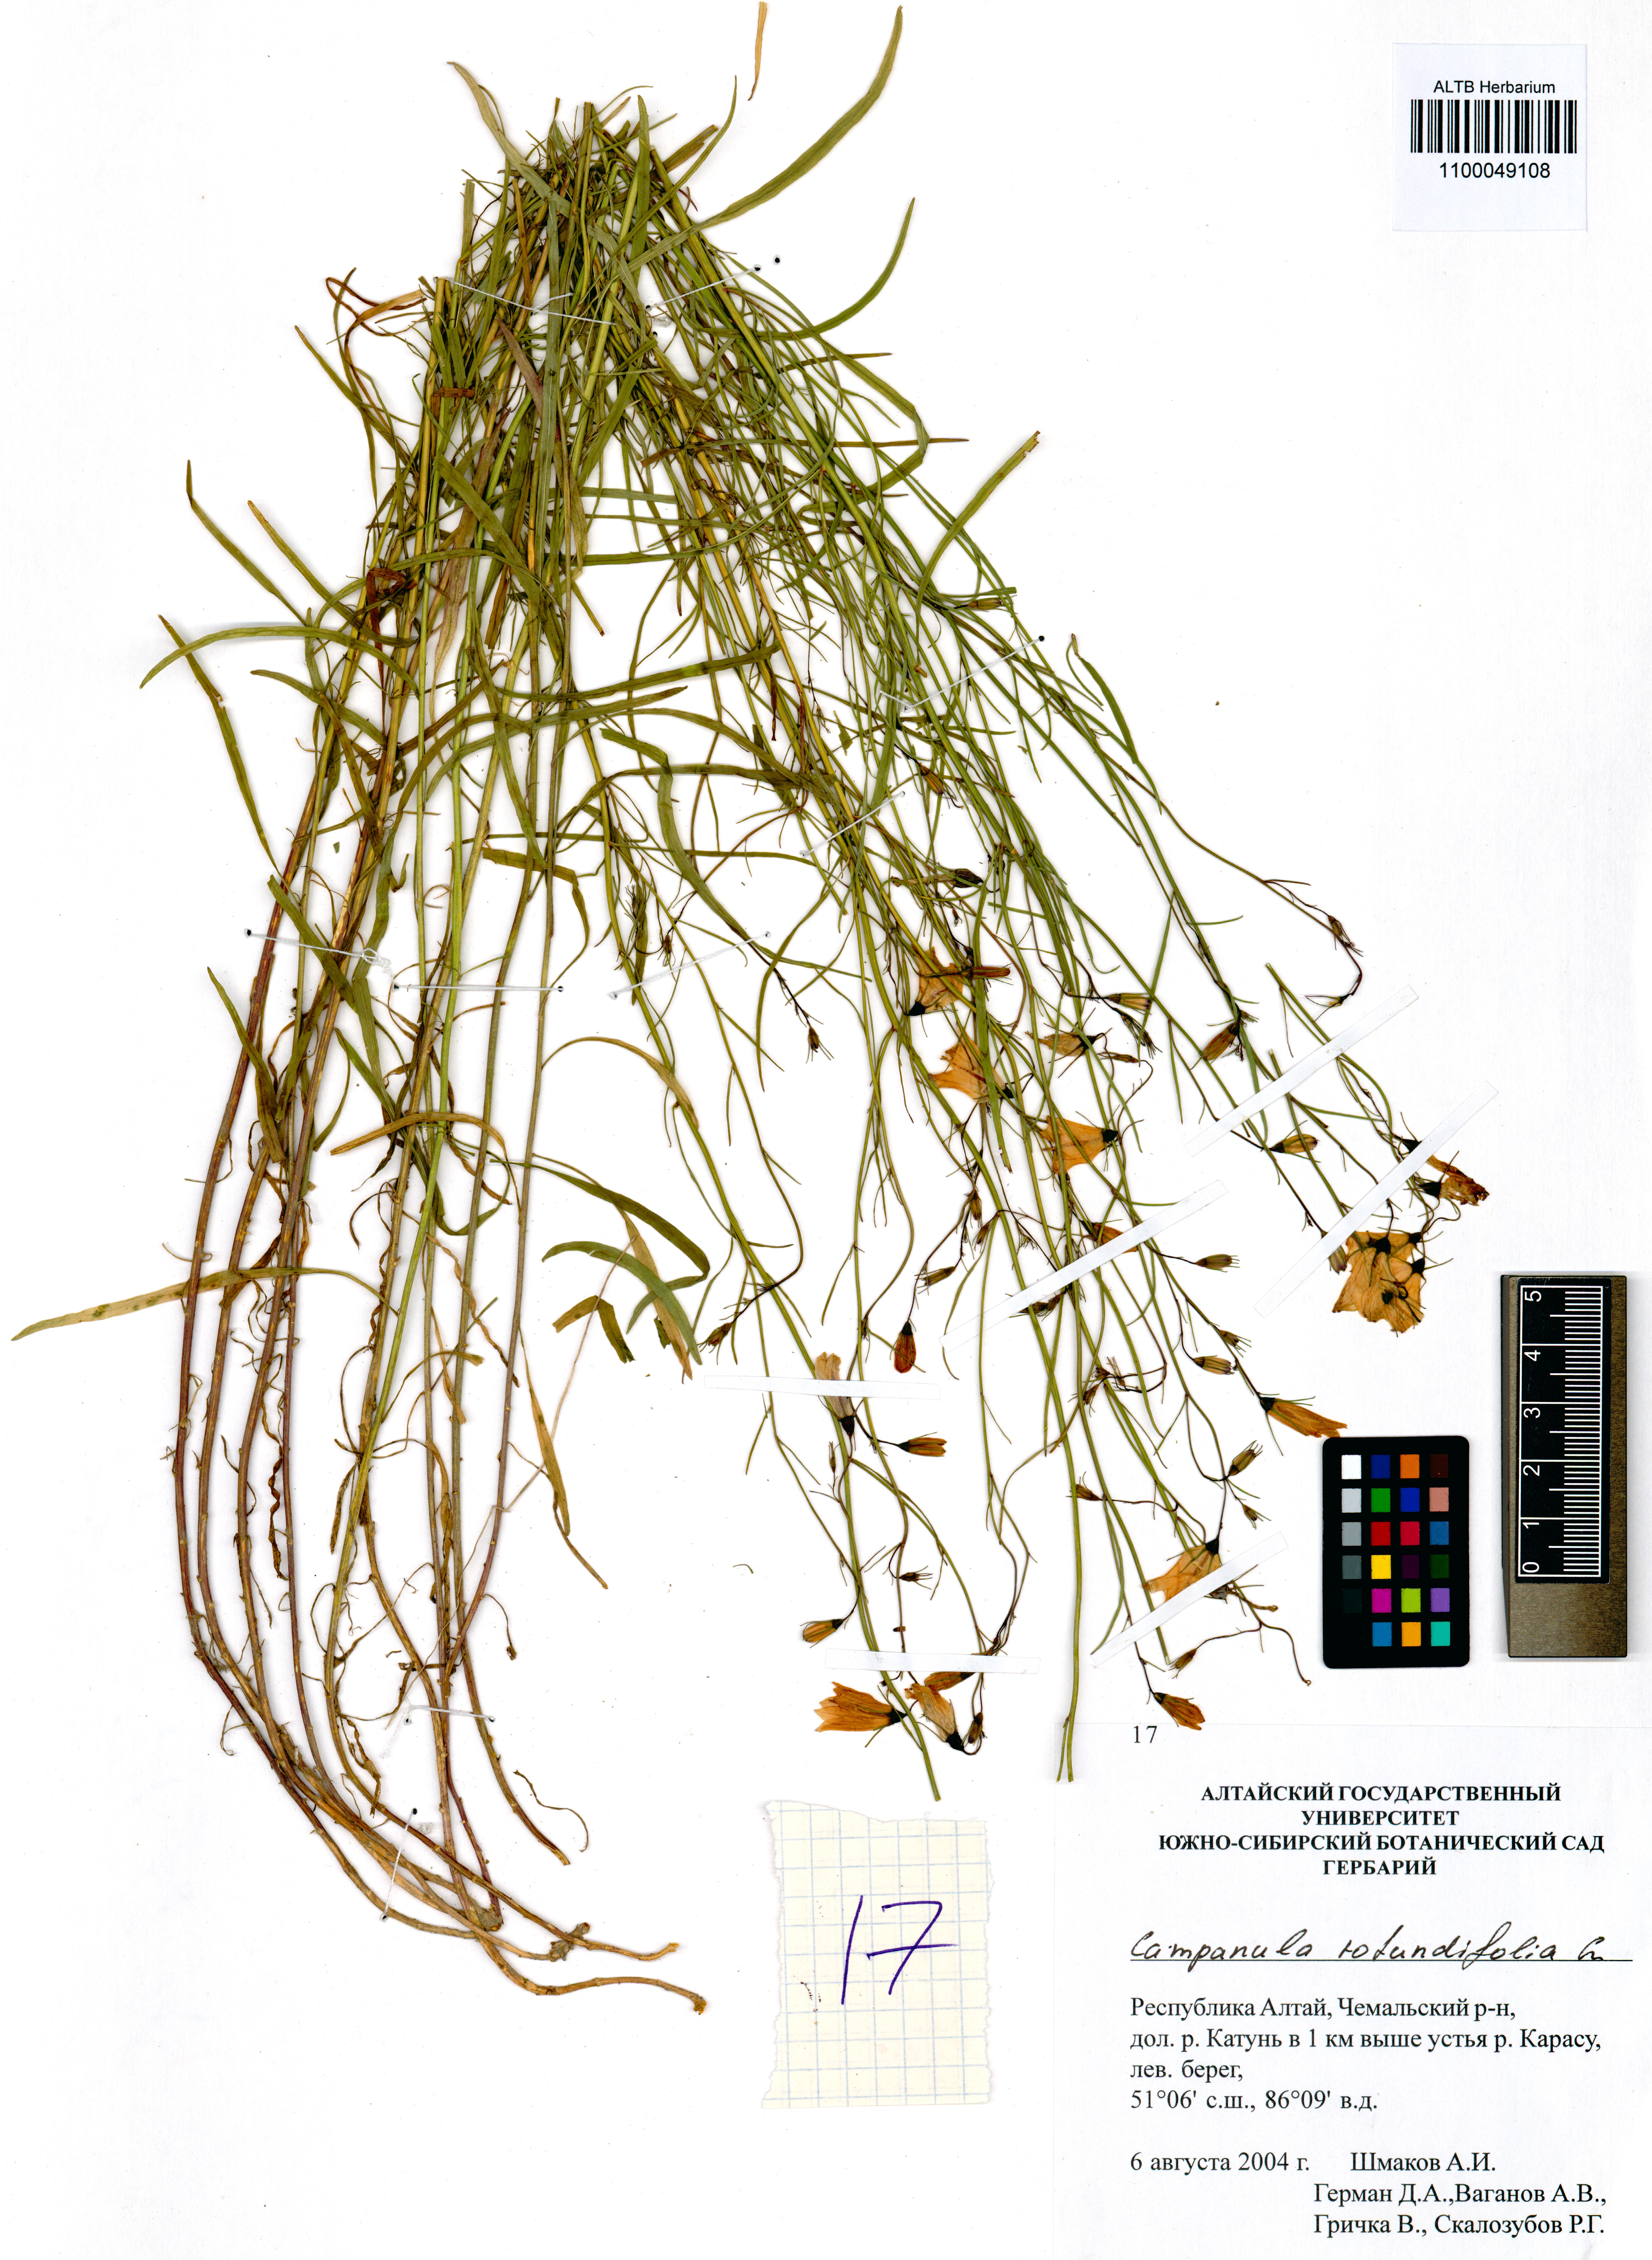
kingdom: Plantae
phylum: Tracheophyta
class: Magnoliopsida
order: Asterales
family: Campanulaceae
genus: Campanula
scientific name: Campanula rotundifolia
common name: Harebell
